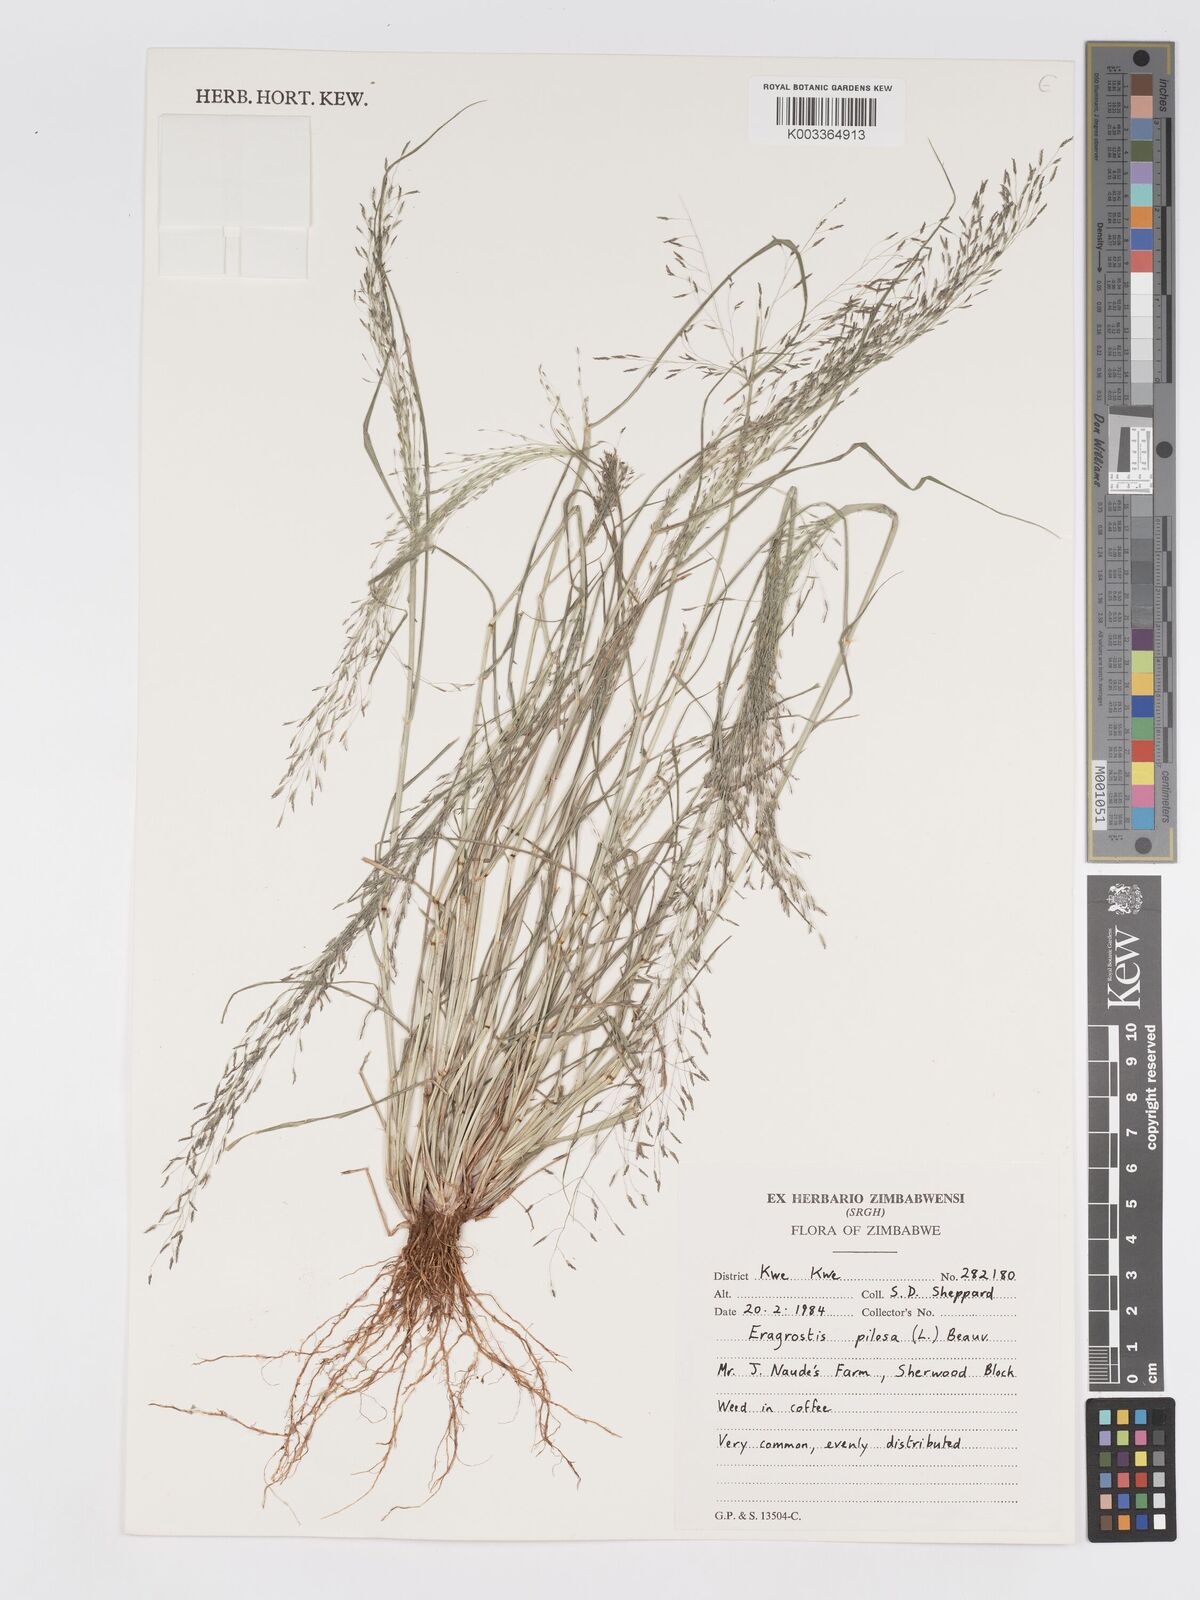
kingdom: Plantae
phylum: Tracheophyta
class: Liliopsida
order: Poales
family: Poaceae
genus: Eragrostis
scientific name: Eragrostis pilosa
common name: Indian lovegrass
